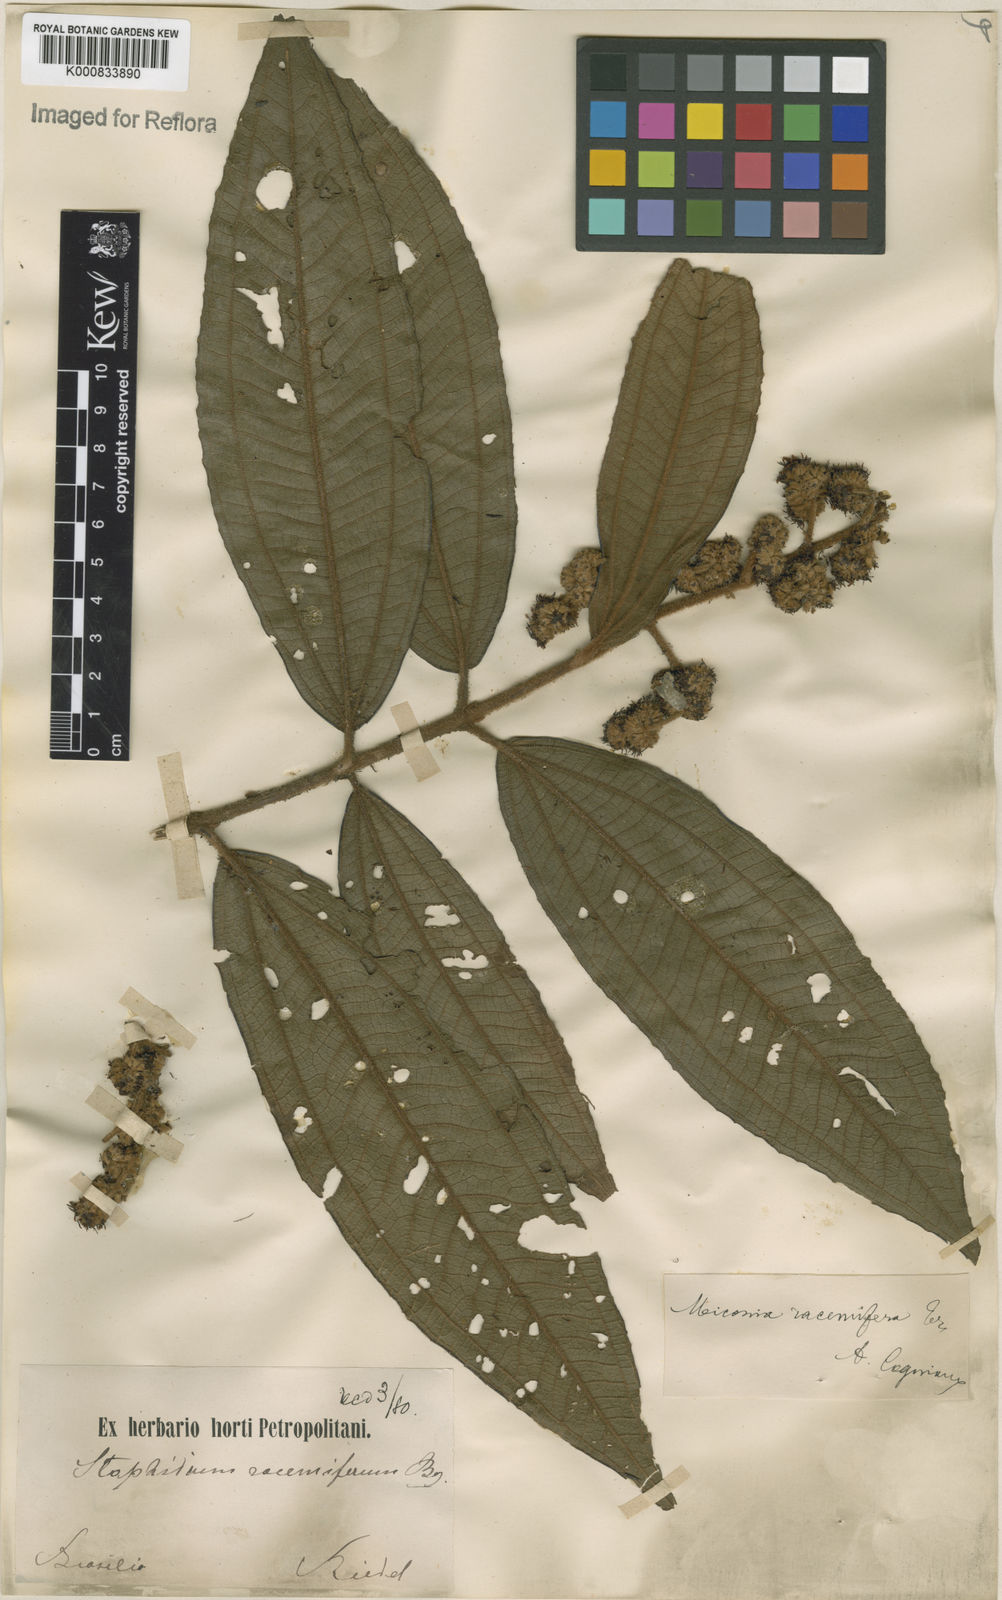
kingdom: Plantae
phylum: Tracheophyta
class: Magnoliopsida
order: Myrtales
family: Melastomataceae
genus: Miconia
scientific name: Miconia racemifera
